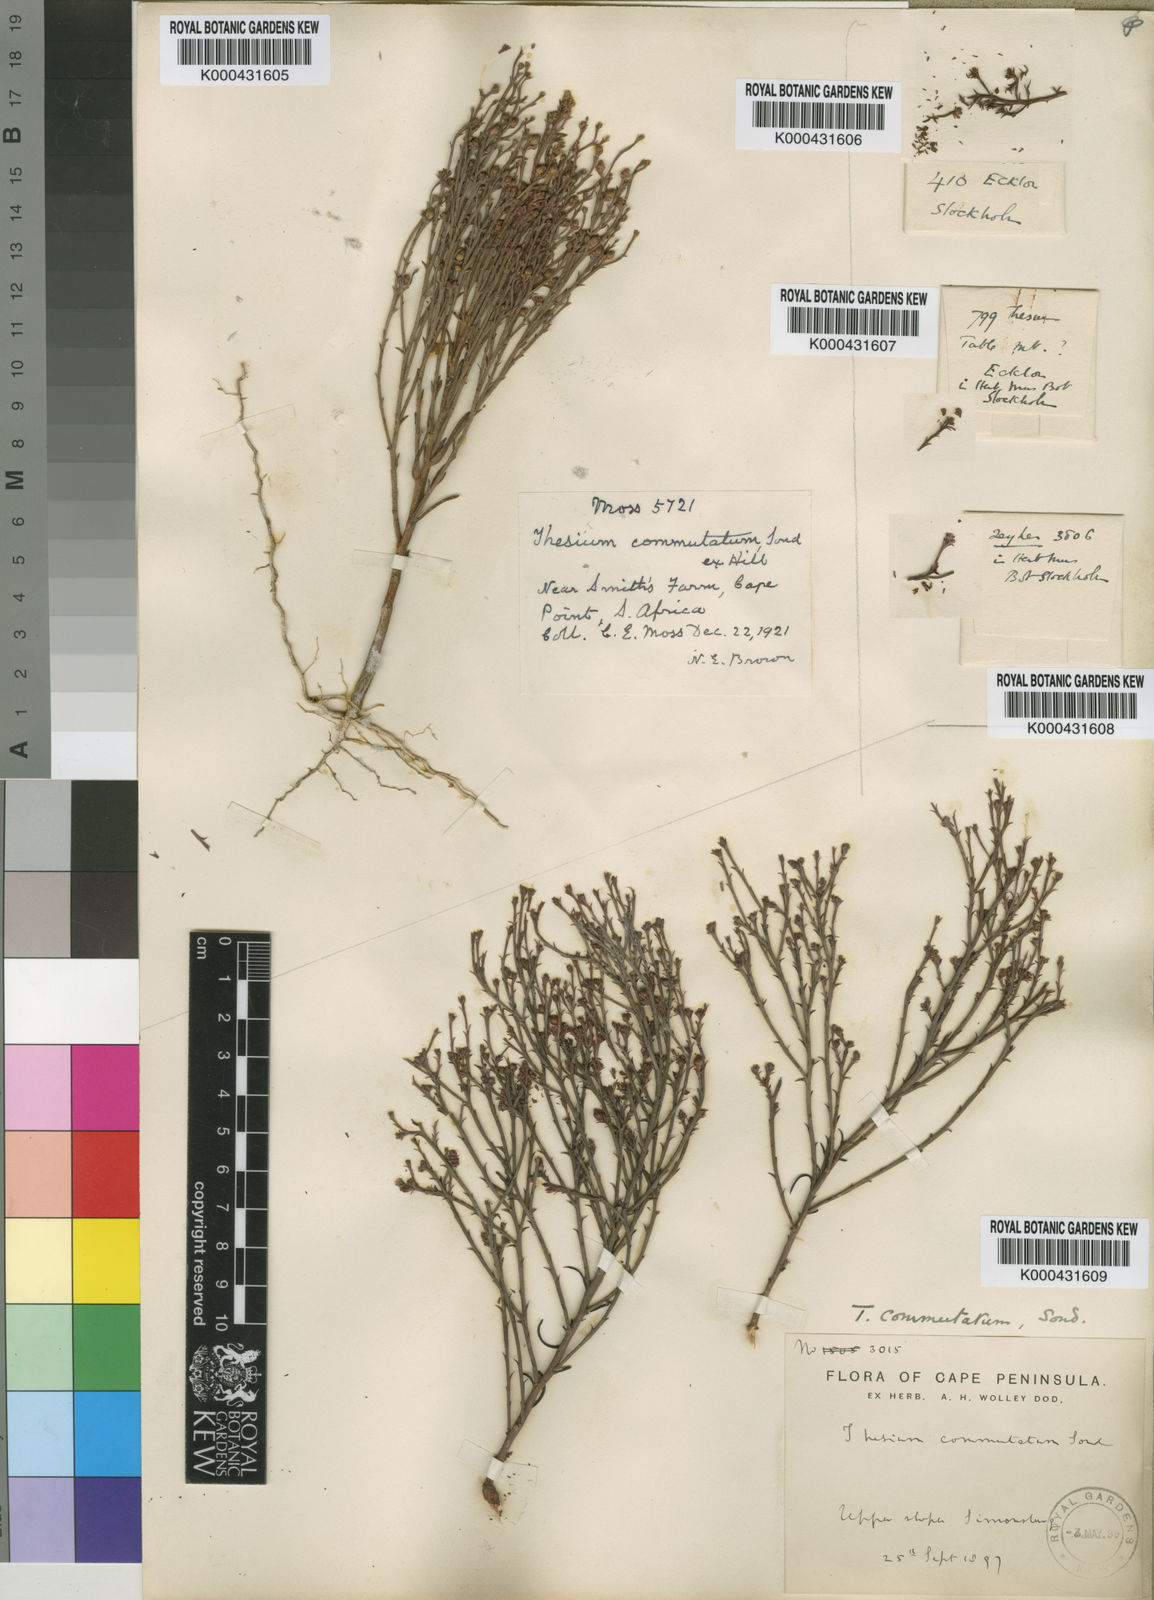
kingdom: Plantae
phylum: Tracheophyta
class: Magnoliopsida
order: Santalales
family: Thesiaceae
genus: Thesium
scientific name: Thesium commutatum
